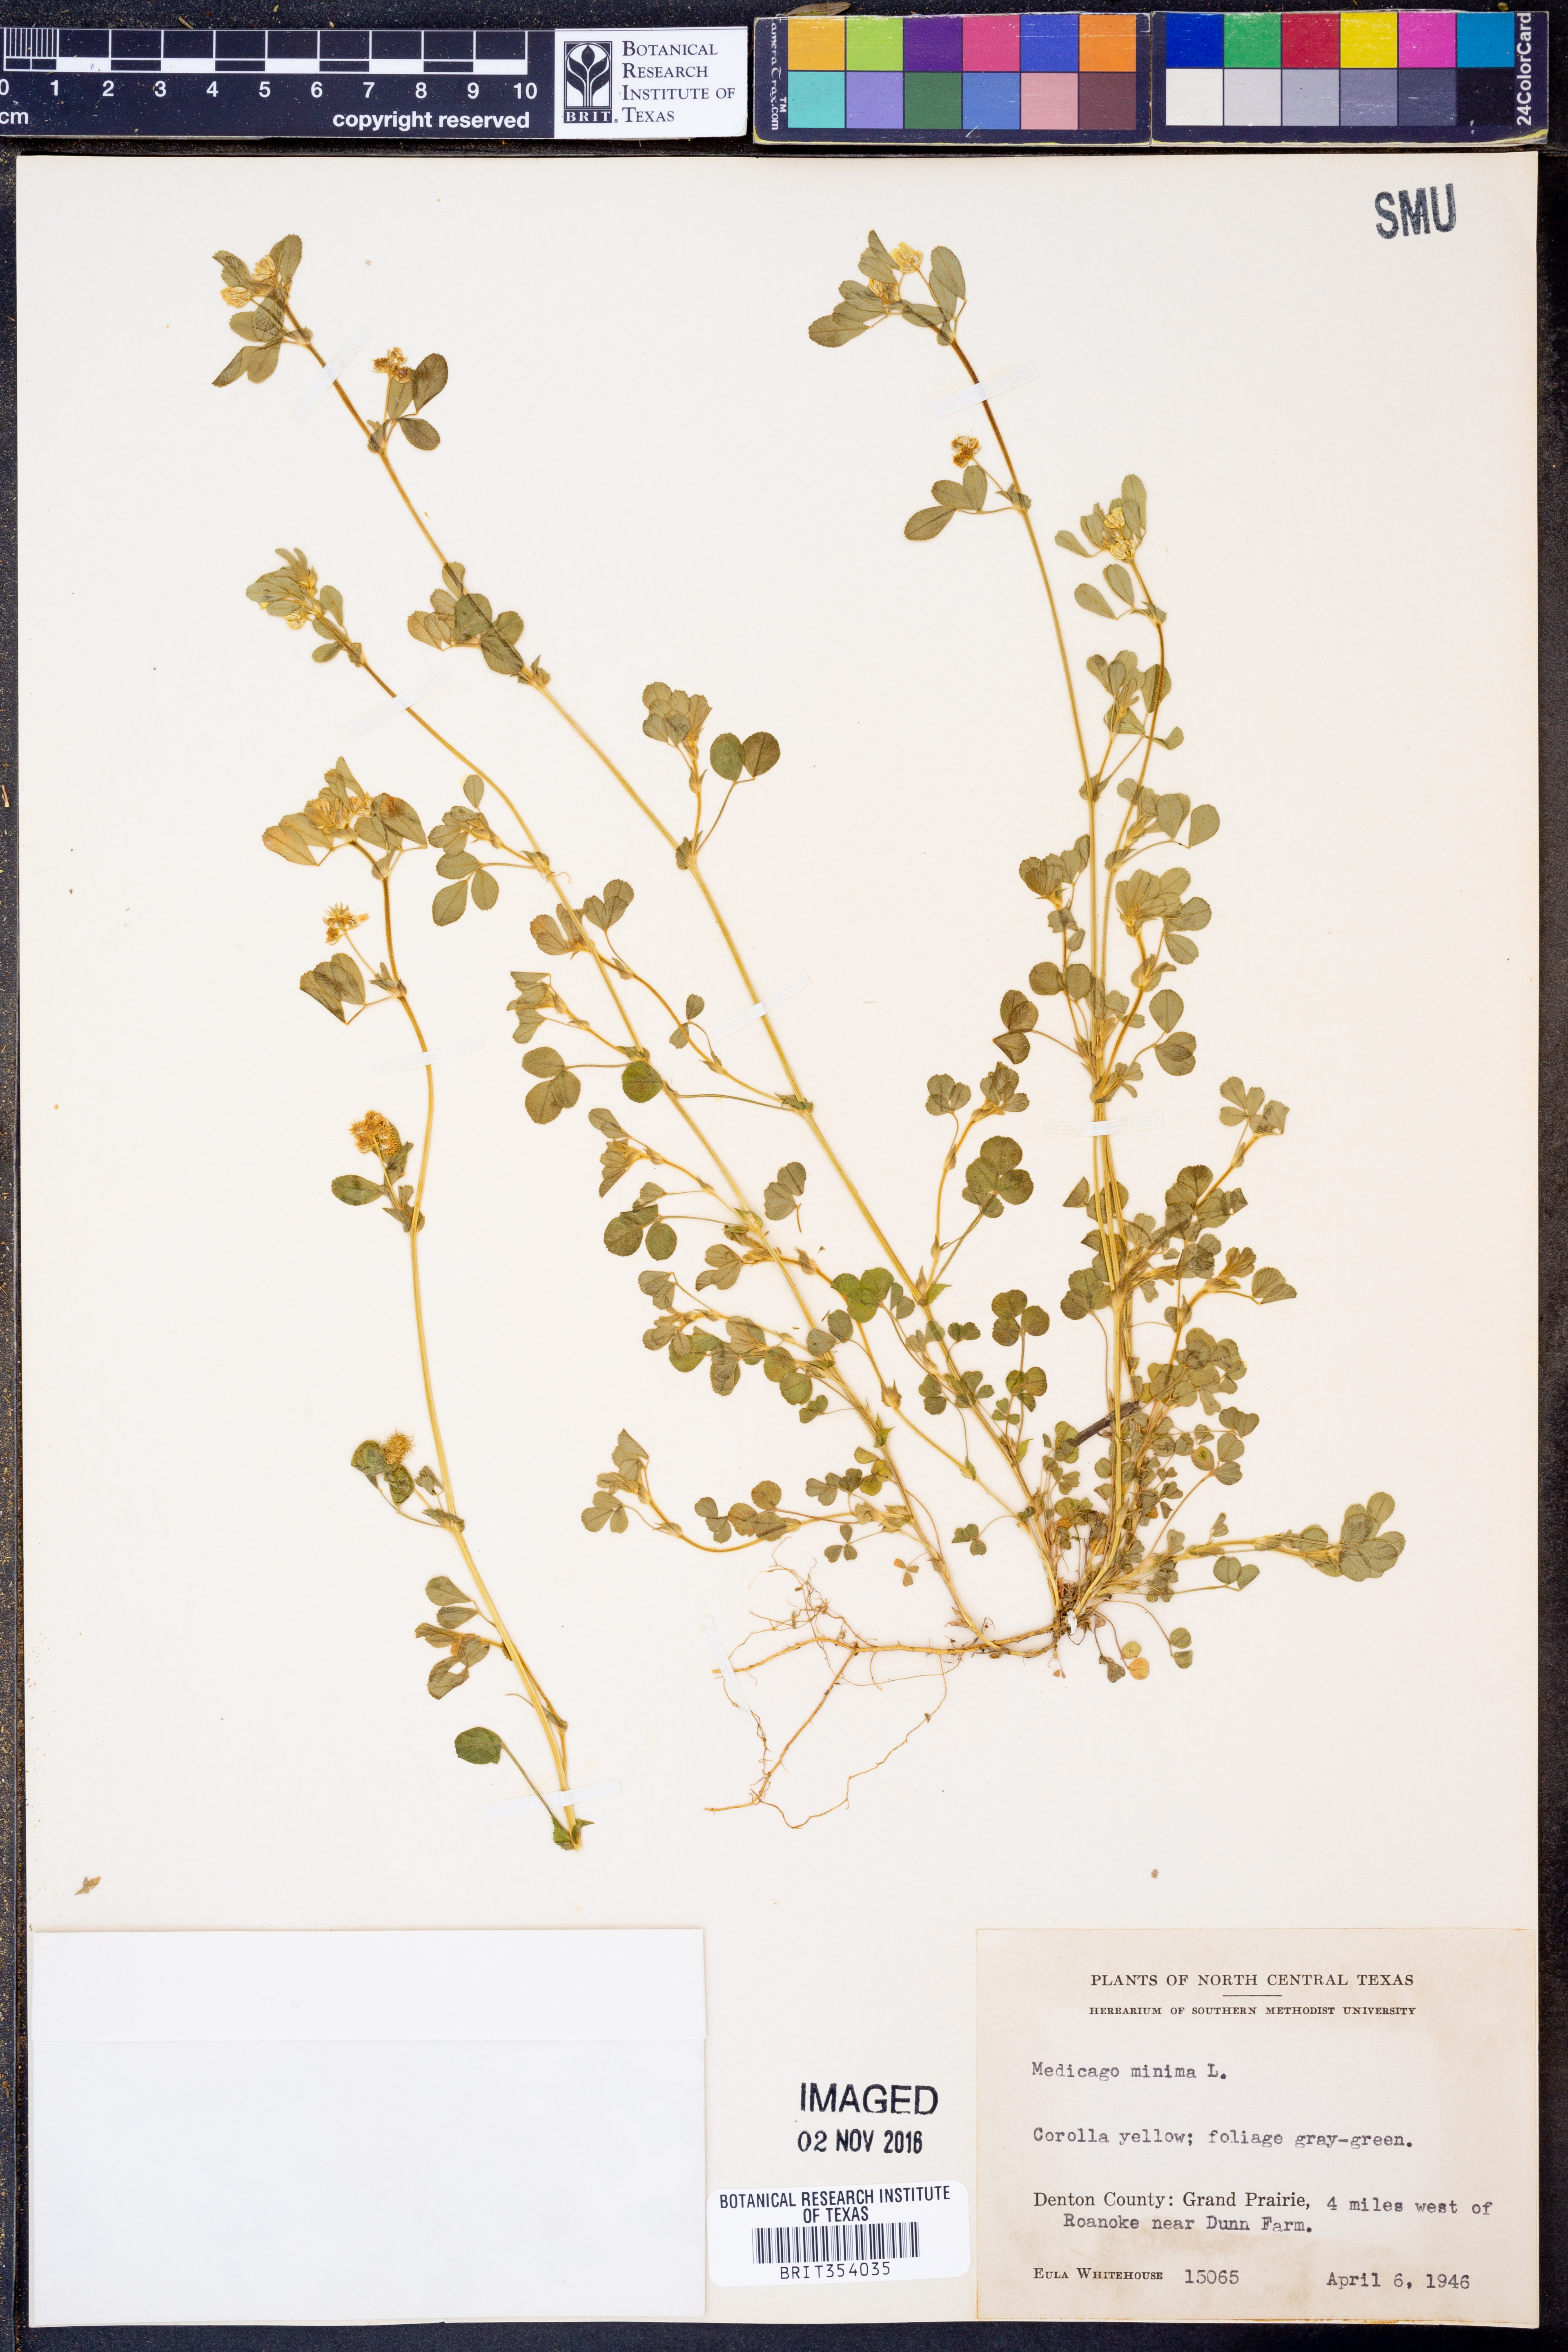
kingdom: Plantae
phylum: Tracheophyta
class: Magnoliopsida
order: Fabales
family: Fabaceae
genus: Medicago
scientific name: Medicago minima
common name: Little bur-clover
